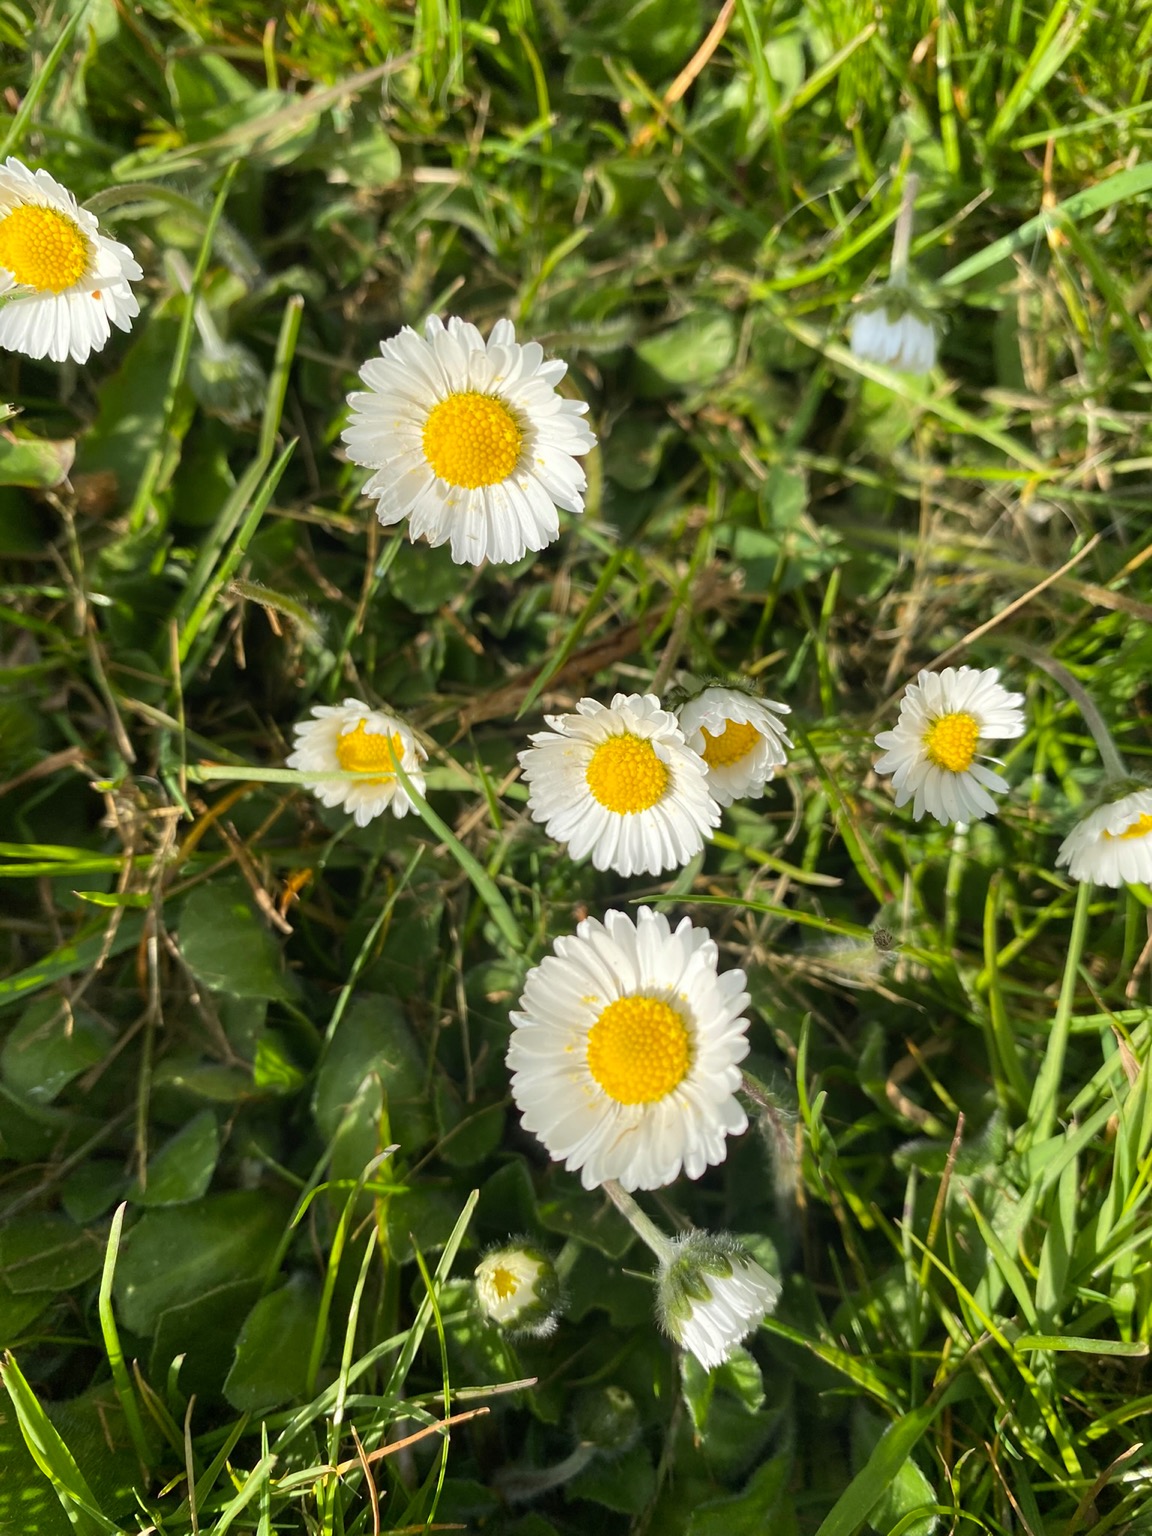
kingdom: Plantae
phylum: Tracheophyta
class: Magnoliopsida
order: Asterales
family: Asteraceae
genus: Bellis
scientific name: Bellis perennis
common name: Tusindfryd
